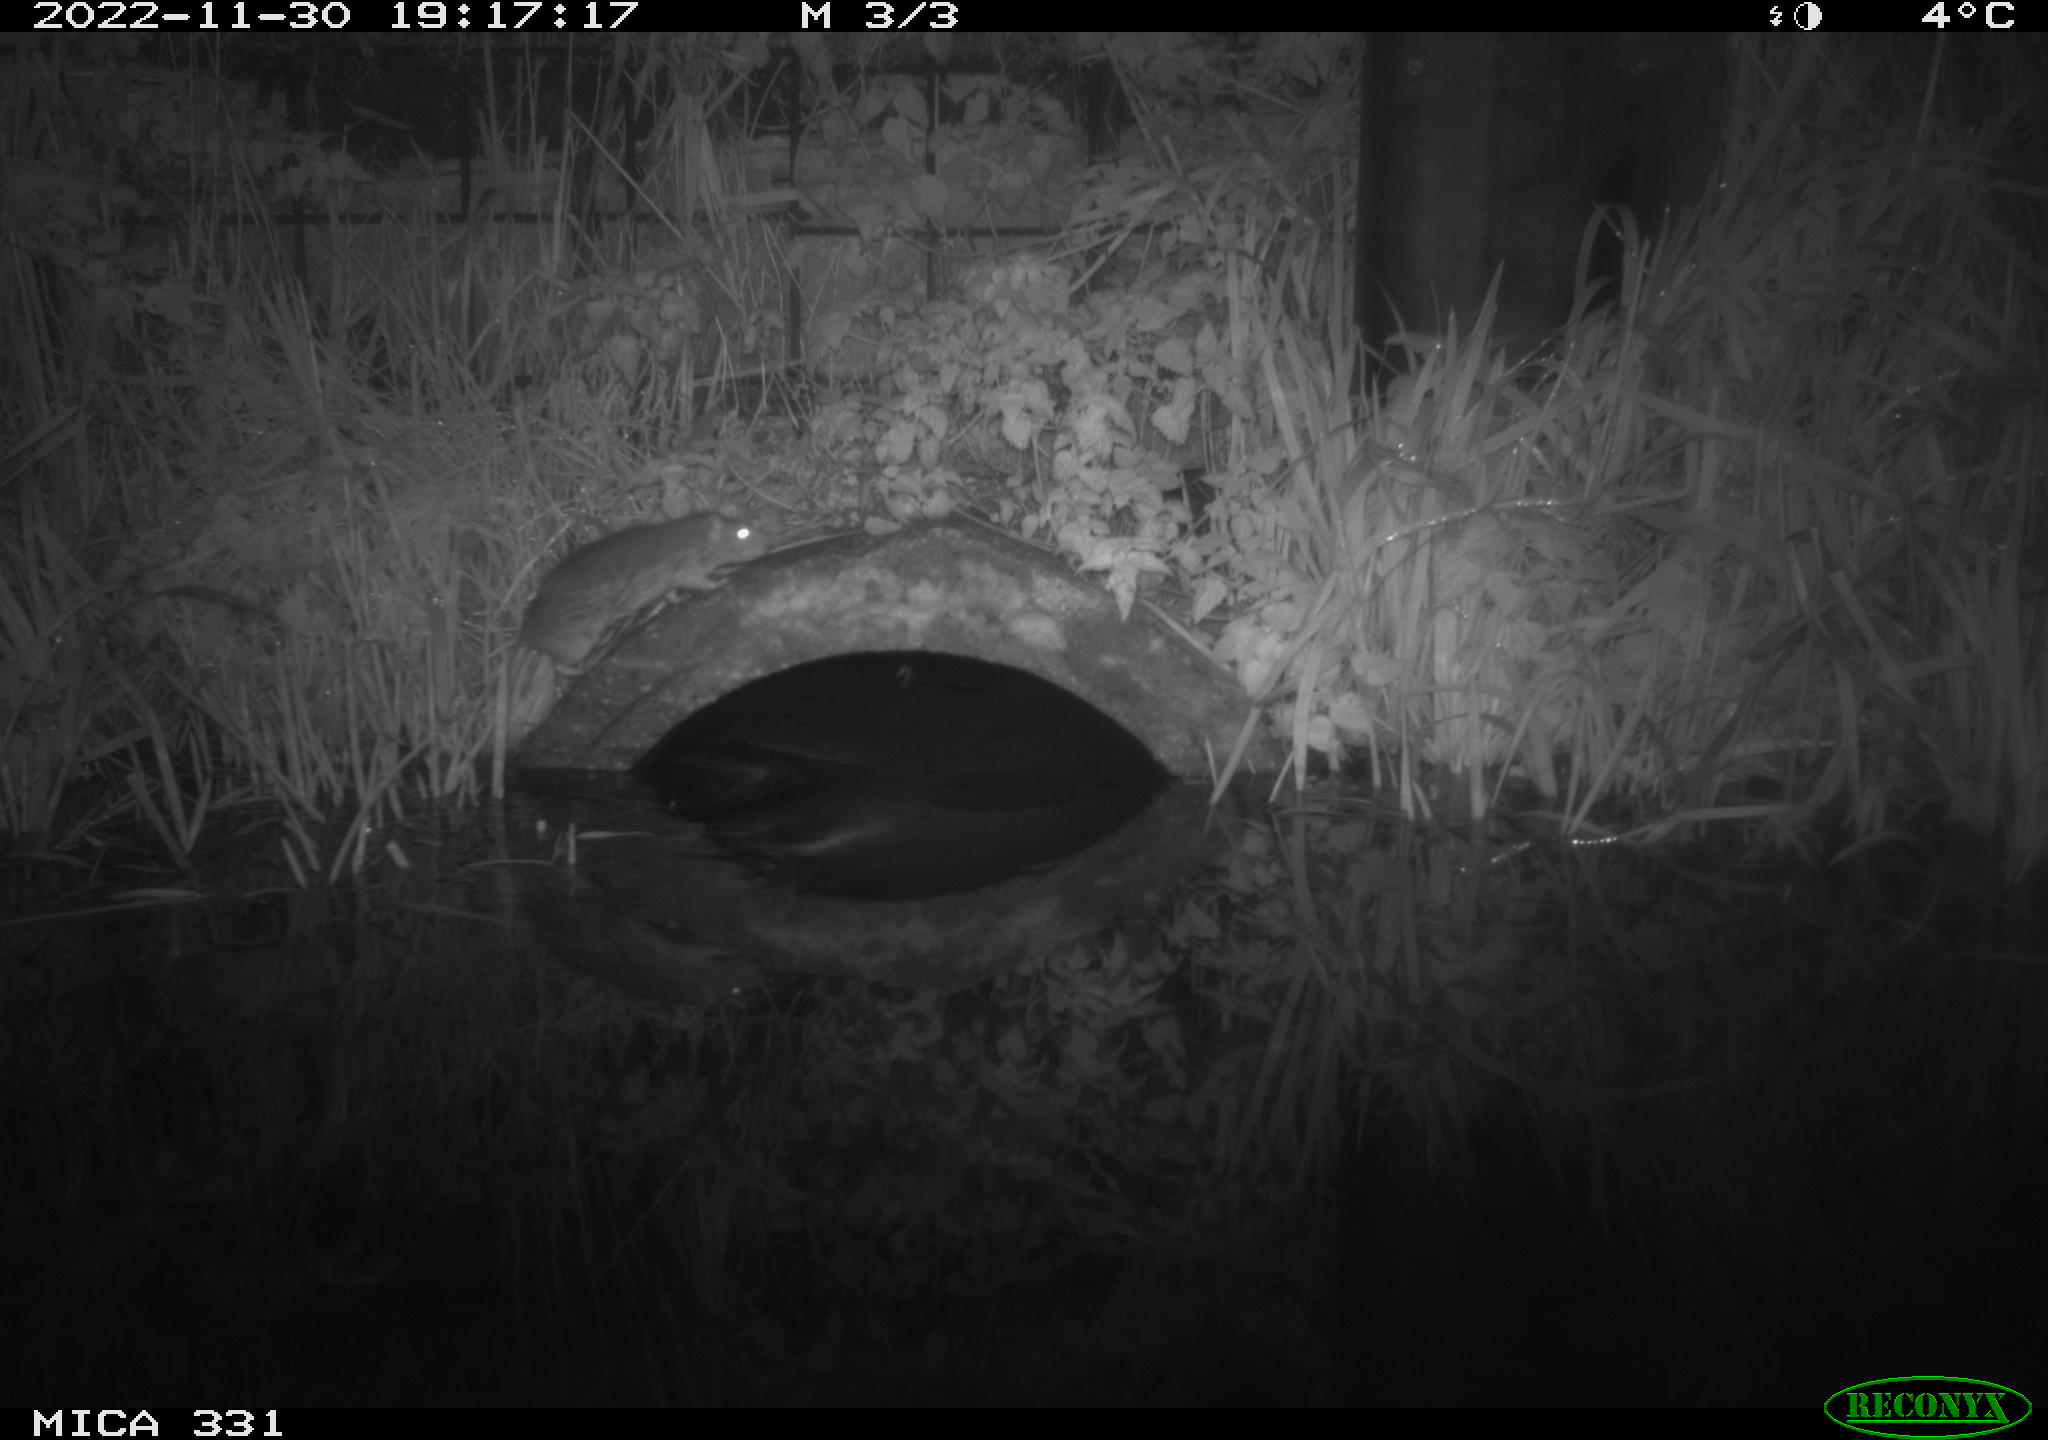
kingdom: Animalia
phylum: Chordata
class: Mammalia
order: Rodentia
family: Muridae
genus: Rattus
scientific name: Rattus norvegicus
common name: Brown rat
